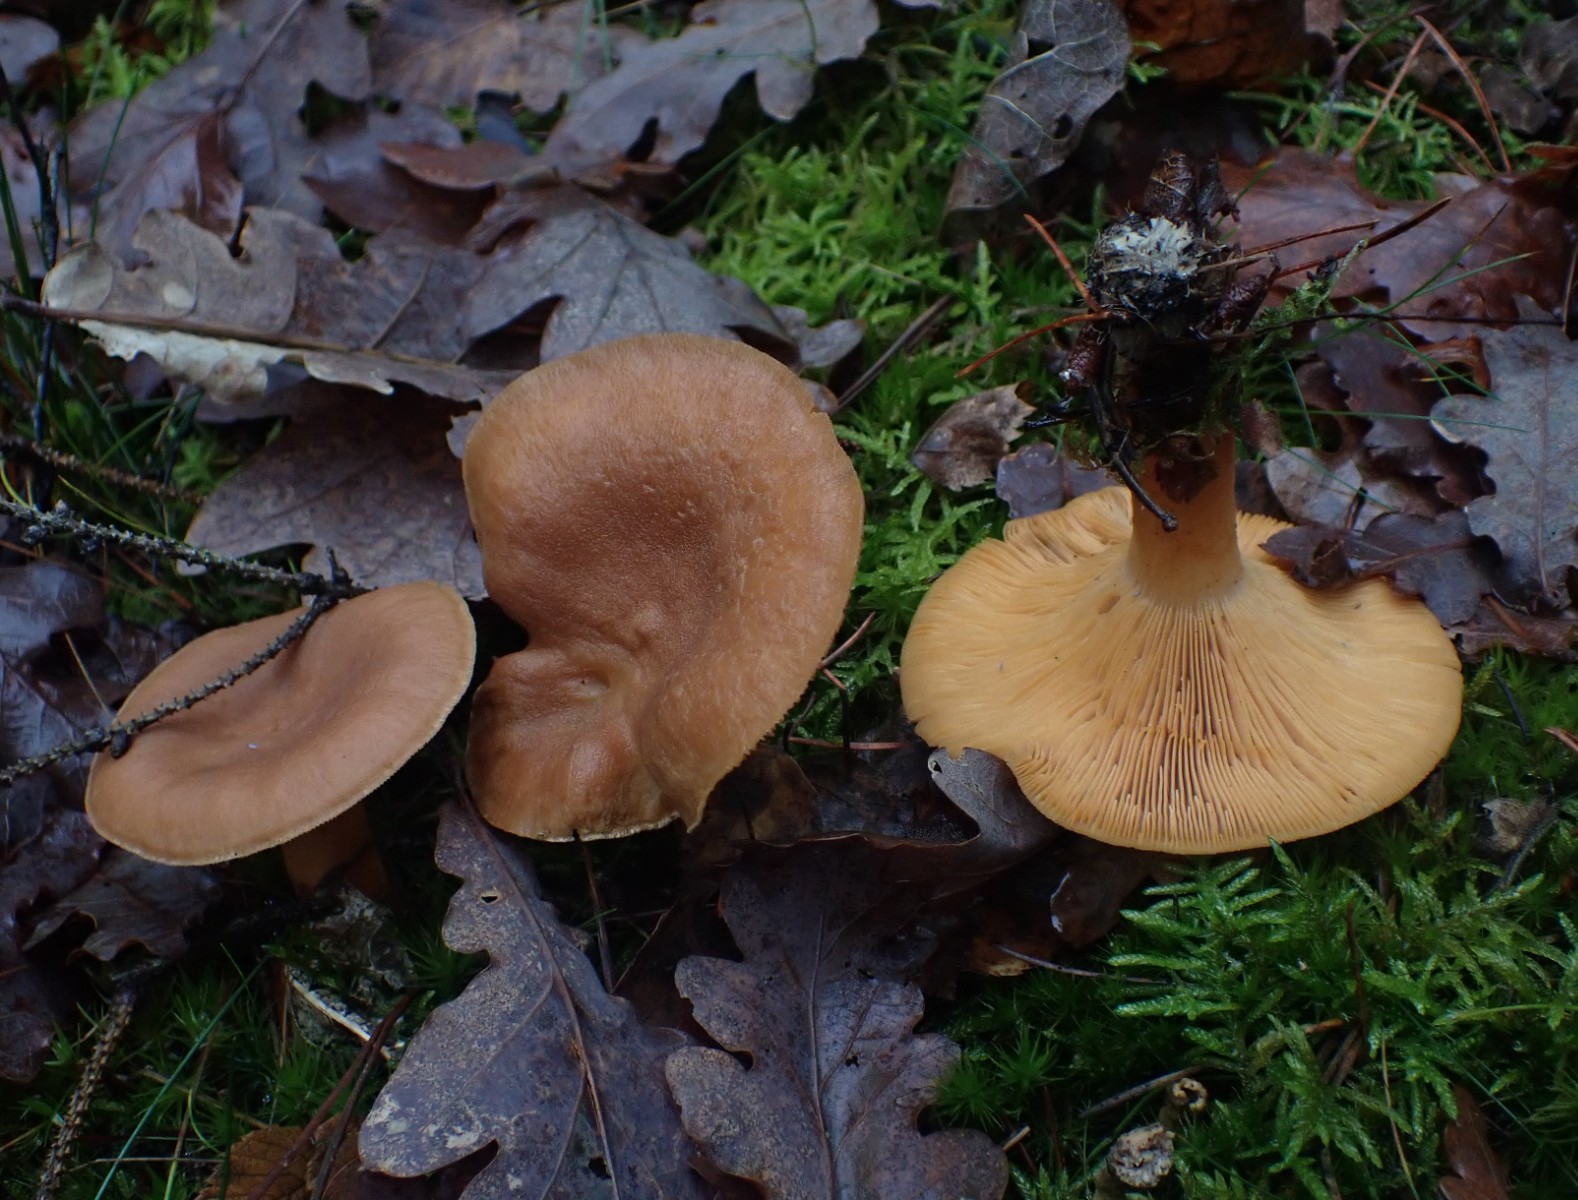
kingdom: Fungi
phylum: Basidiomycota
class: Agaricomycetes
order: Russulales
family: Russulaceae
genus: Lactarius
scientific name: Lactarius helvus
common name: mose-mælkehat
